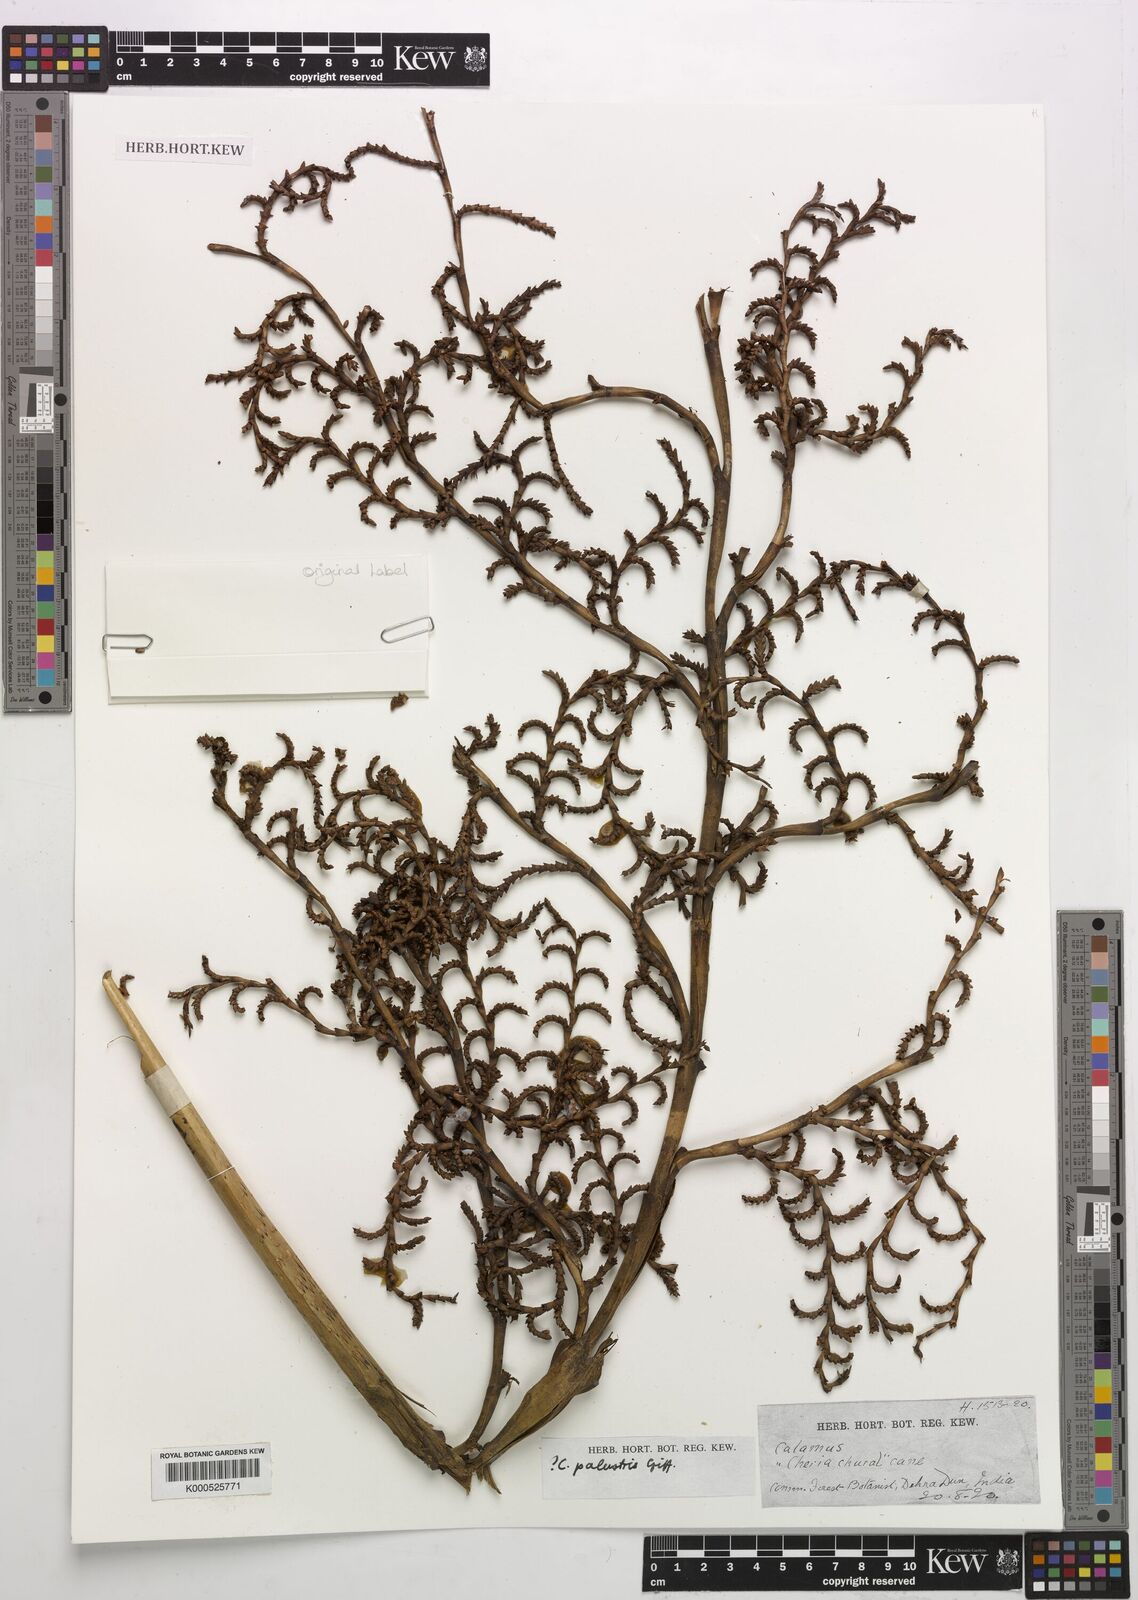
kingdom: Plantae
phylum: Tracheophyta
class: Liliopsida
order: Arecales
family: Arecaceae
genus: Korthalsia
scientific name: Korthalsia zippelii
